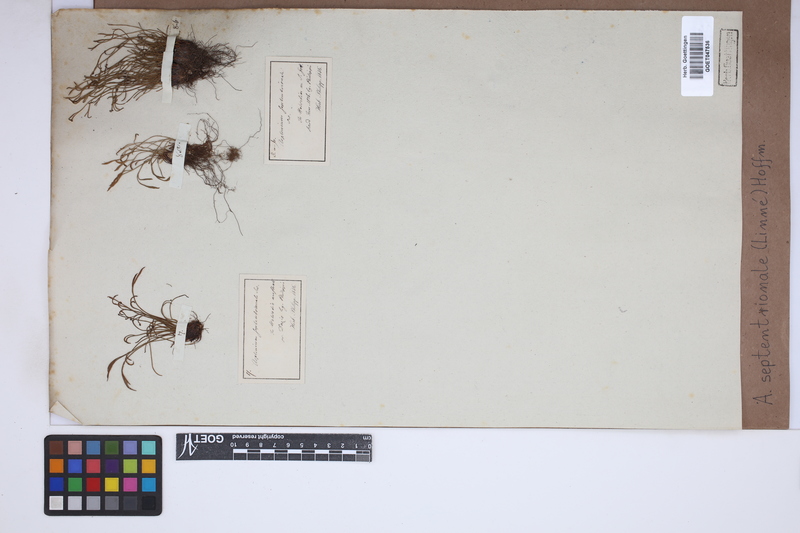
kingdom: Plantae
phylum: Tracheophyta
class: Polypodiopsida
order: Polypodiales
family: Aspleniaceae
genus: Asplenium
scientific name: Asplenium septentrionale
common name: Forked spleenwort
